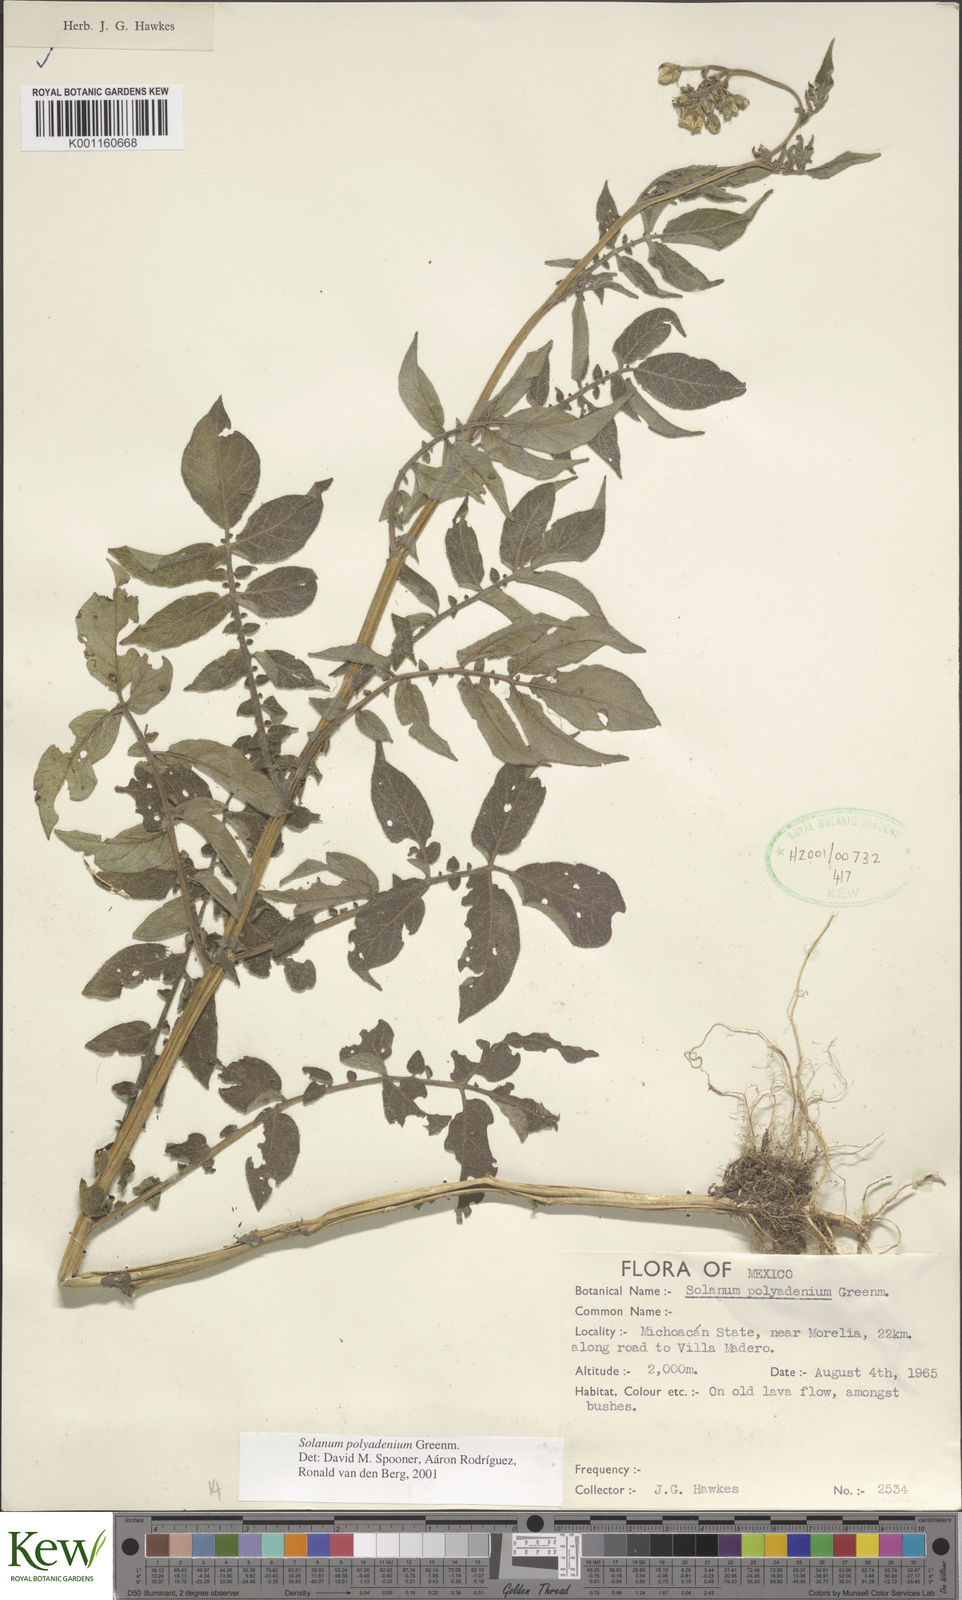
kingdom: Plantae
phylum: Tracheophyta
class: Magnoliopsida
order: Solanales
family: Solanaceae
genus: Solanum
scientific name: Solanum polyadenium
